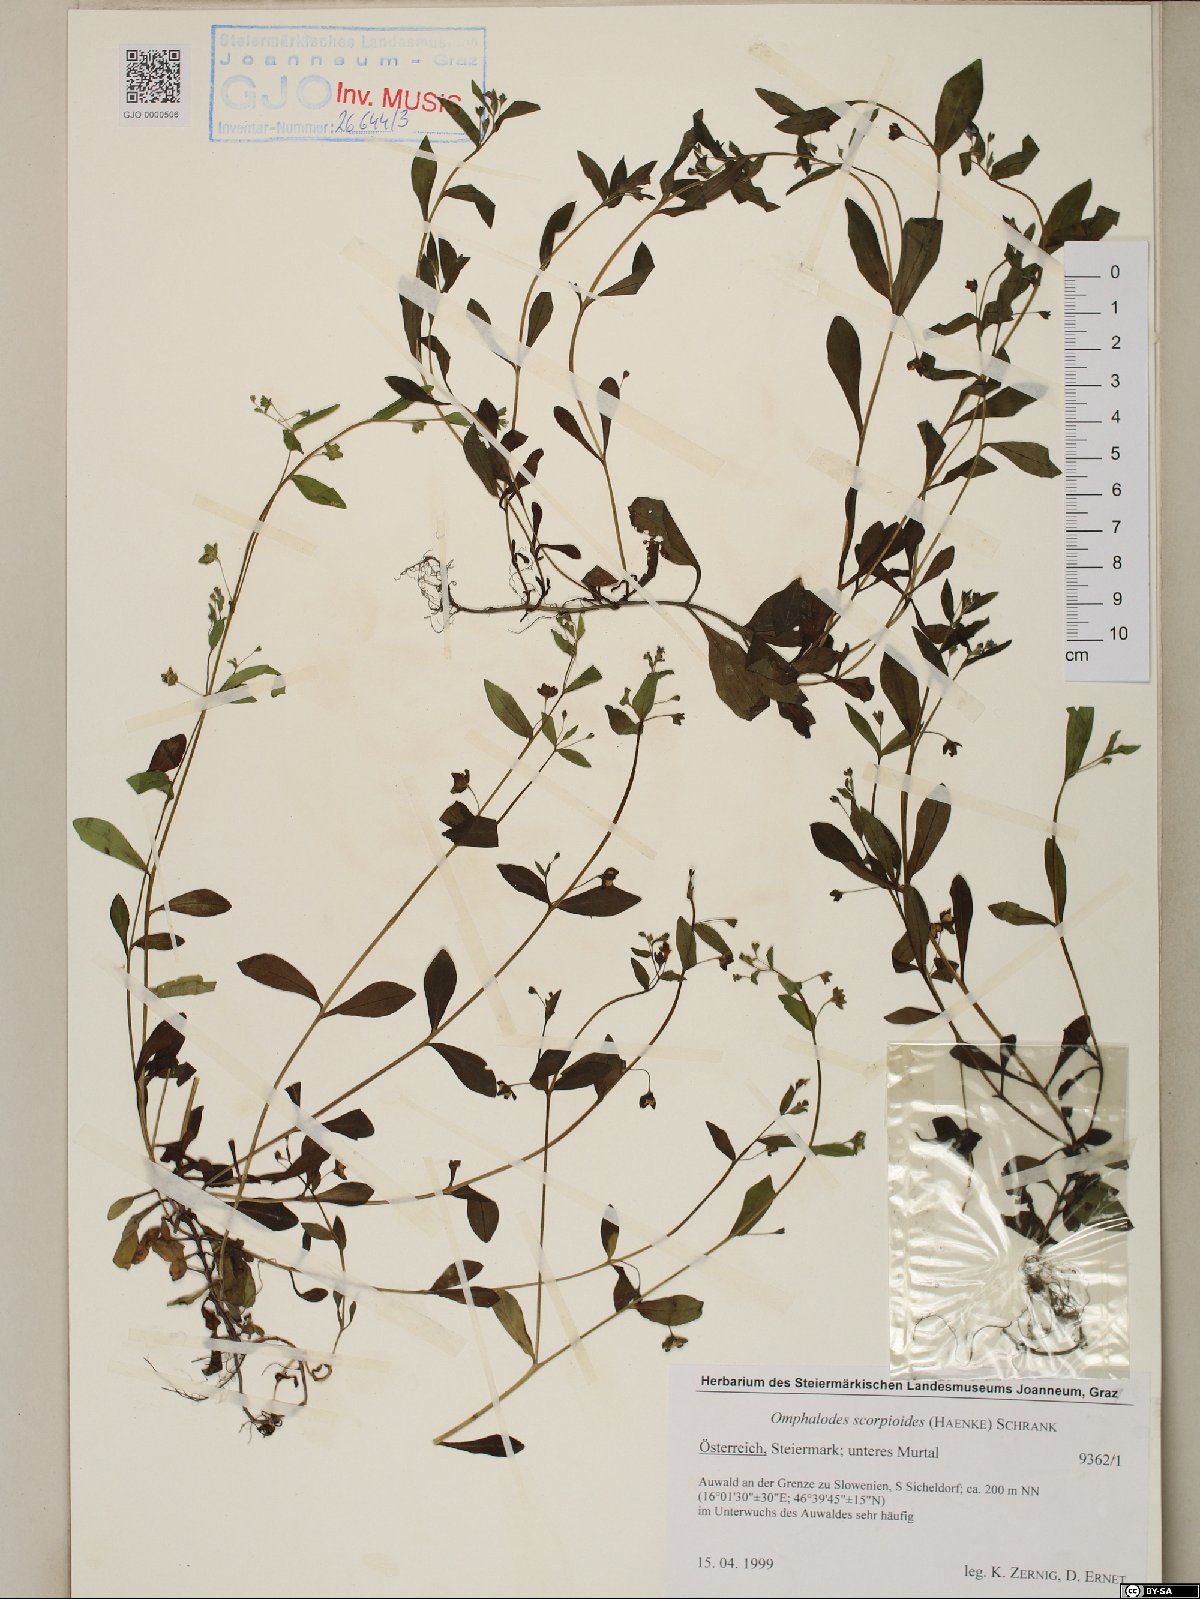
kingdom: Plantae
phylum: Tracheophyta
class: Magnoliopsida
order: Boraginales
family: Boraginaceae
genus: Memoremea
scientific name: Memoremea scorpioides
